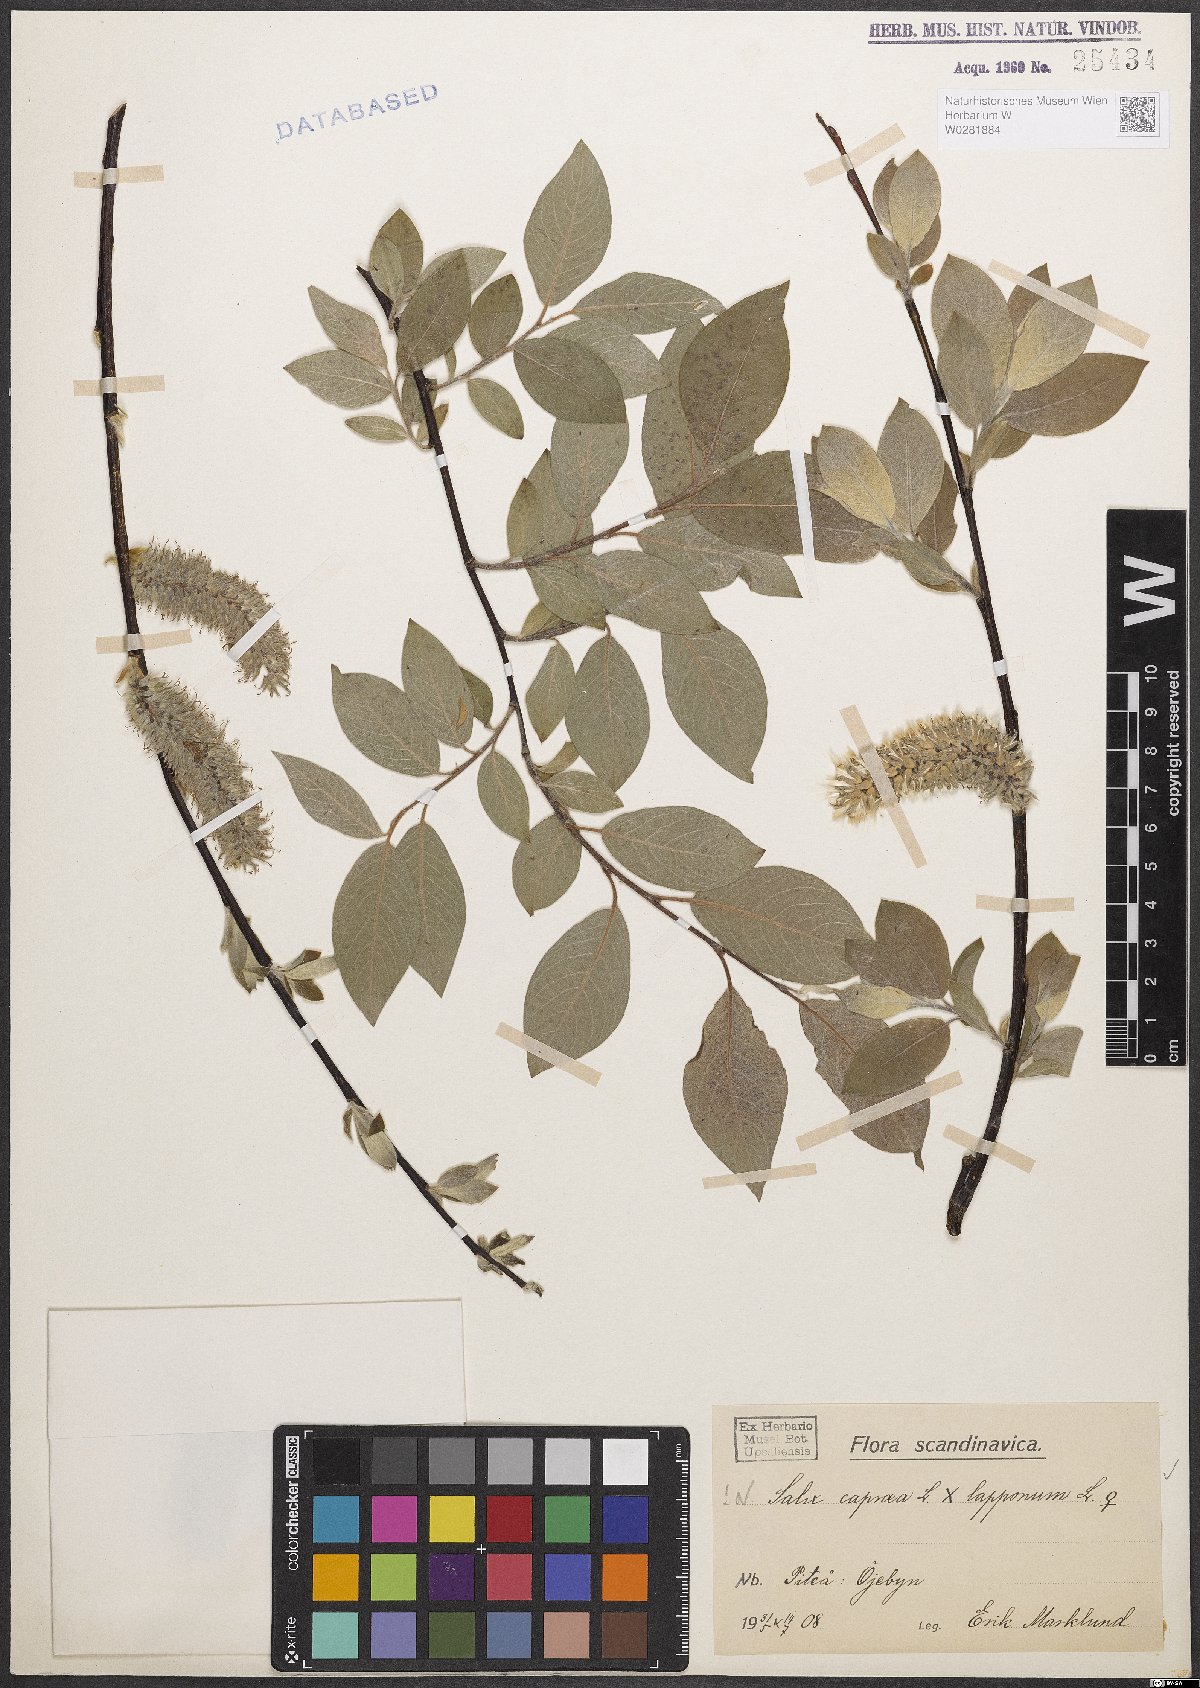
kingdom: Plantae
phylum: Tracheophyta
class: Magnoliopsida
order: Malpighiales
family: Salicaceae
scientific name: Salicaceae
